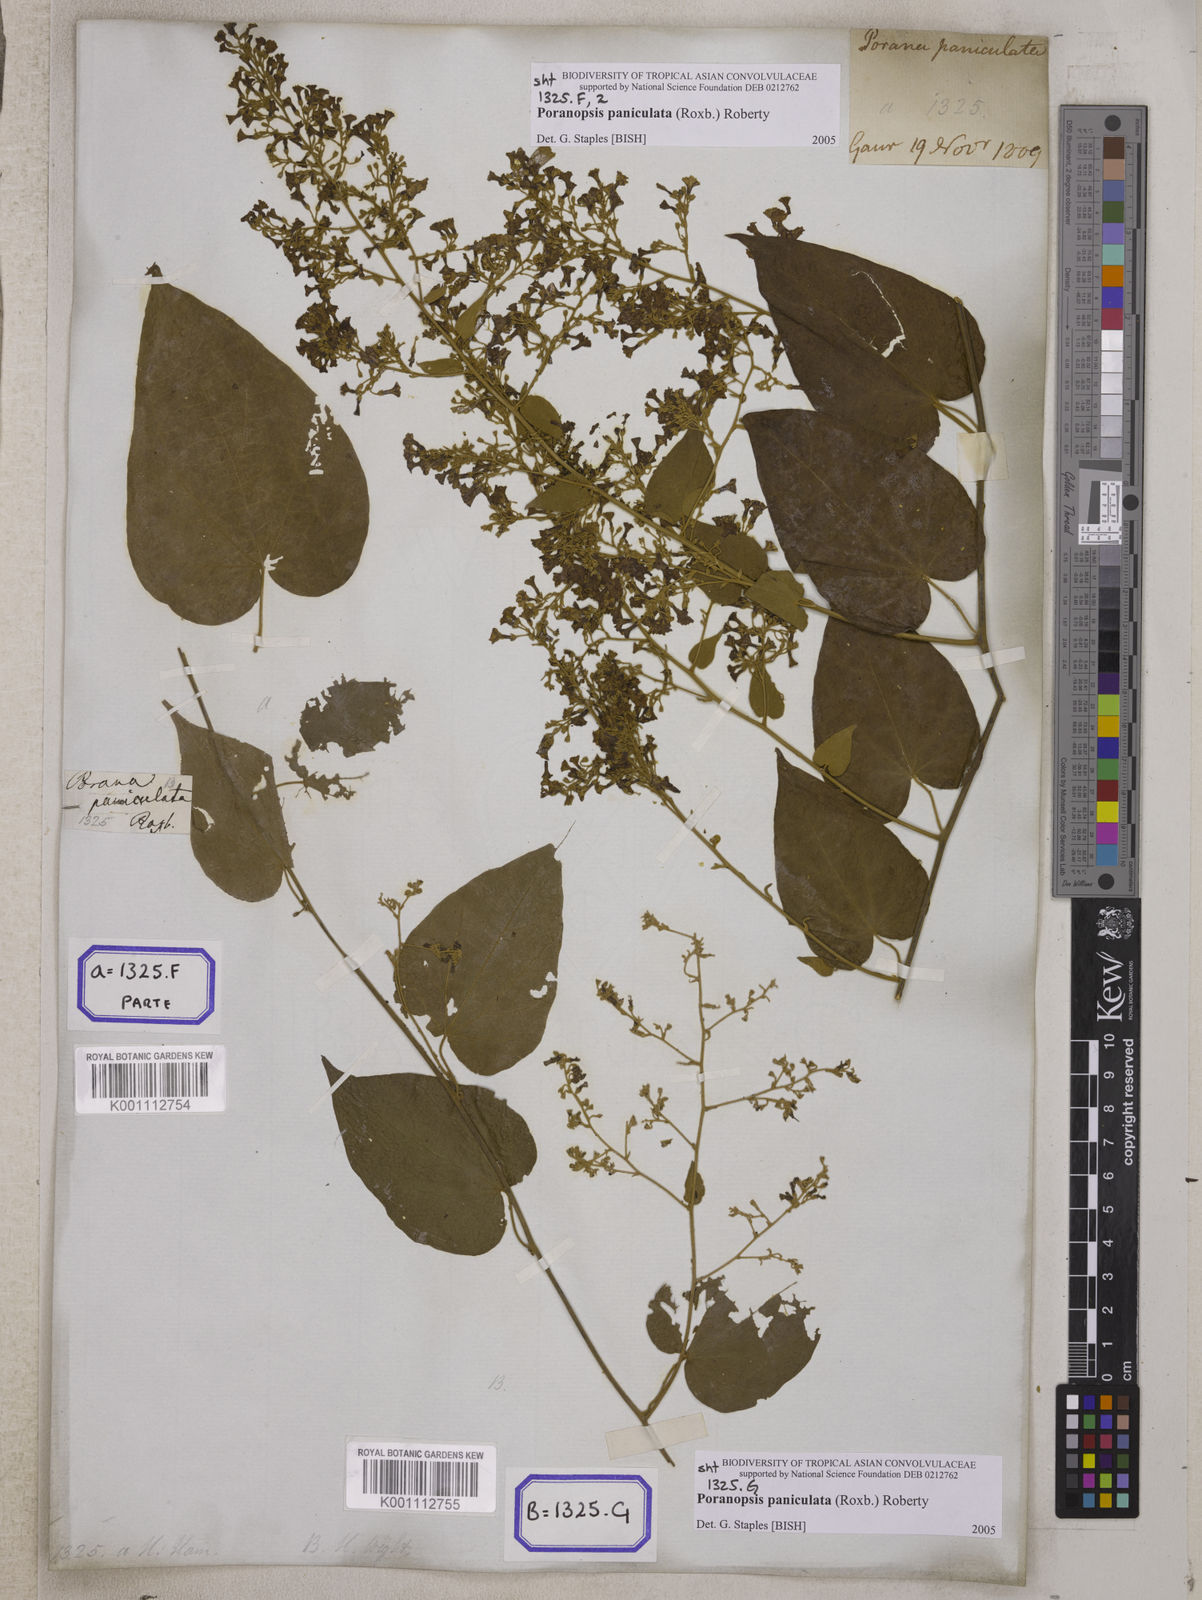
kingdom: Plantae
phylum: Tracheophyta
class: Magnoliopsida
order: Solanales
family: Convolvulaceae
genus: Poranopsis
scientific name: Poranopsis paniculata
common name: Bridal bouquet
